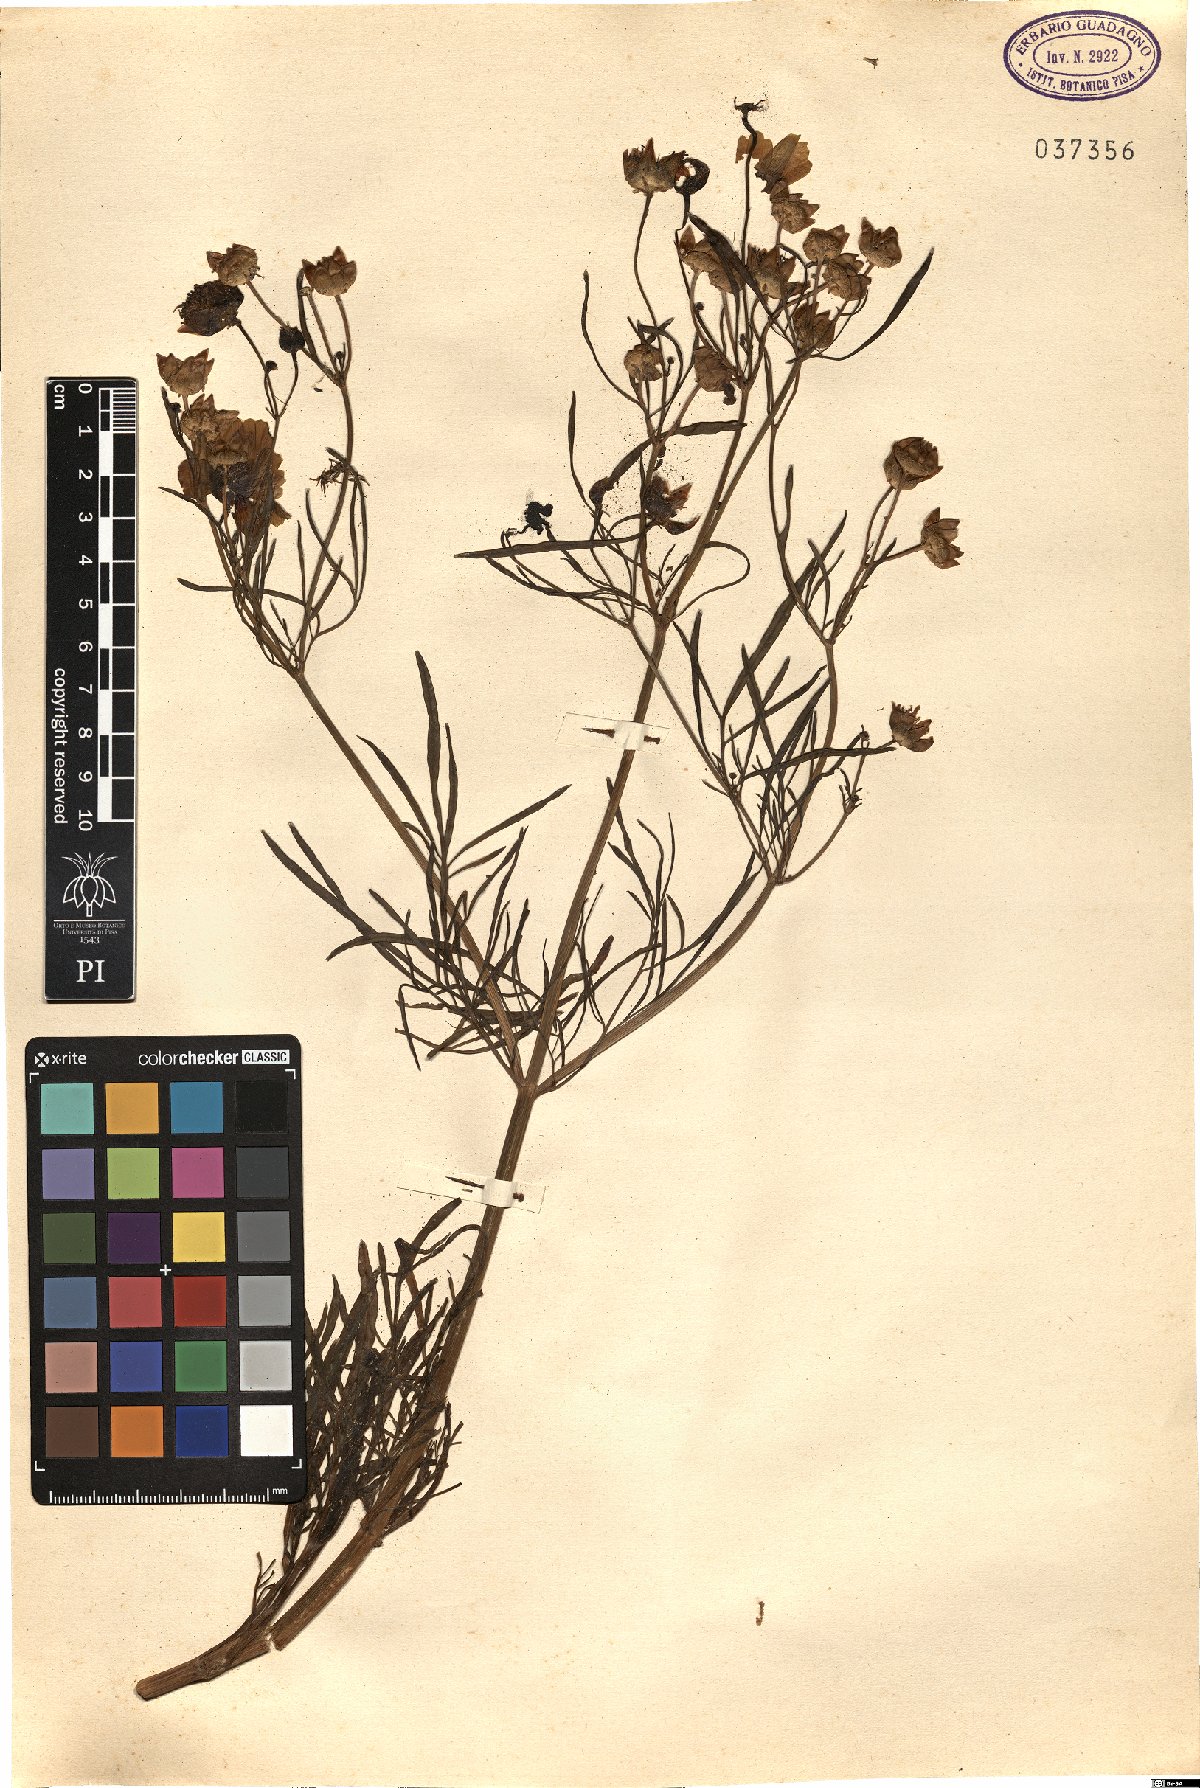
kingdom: Plantae
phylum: Tracheophyta
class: Magnoliopsida
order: Asterales
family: Asteraceae
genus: Coreopsis
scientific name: Coreopsis
